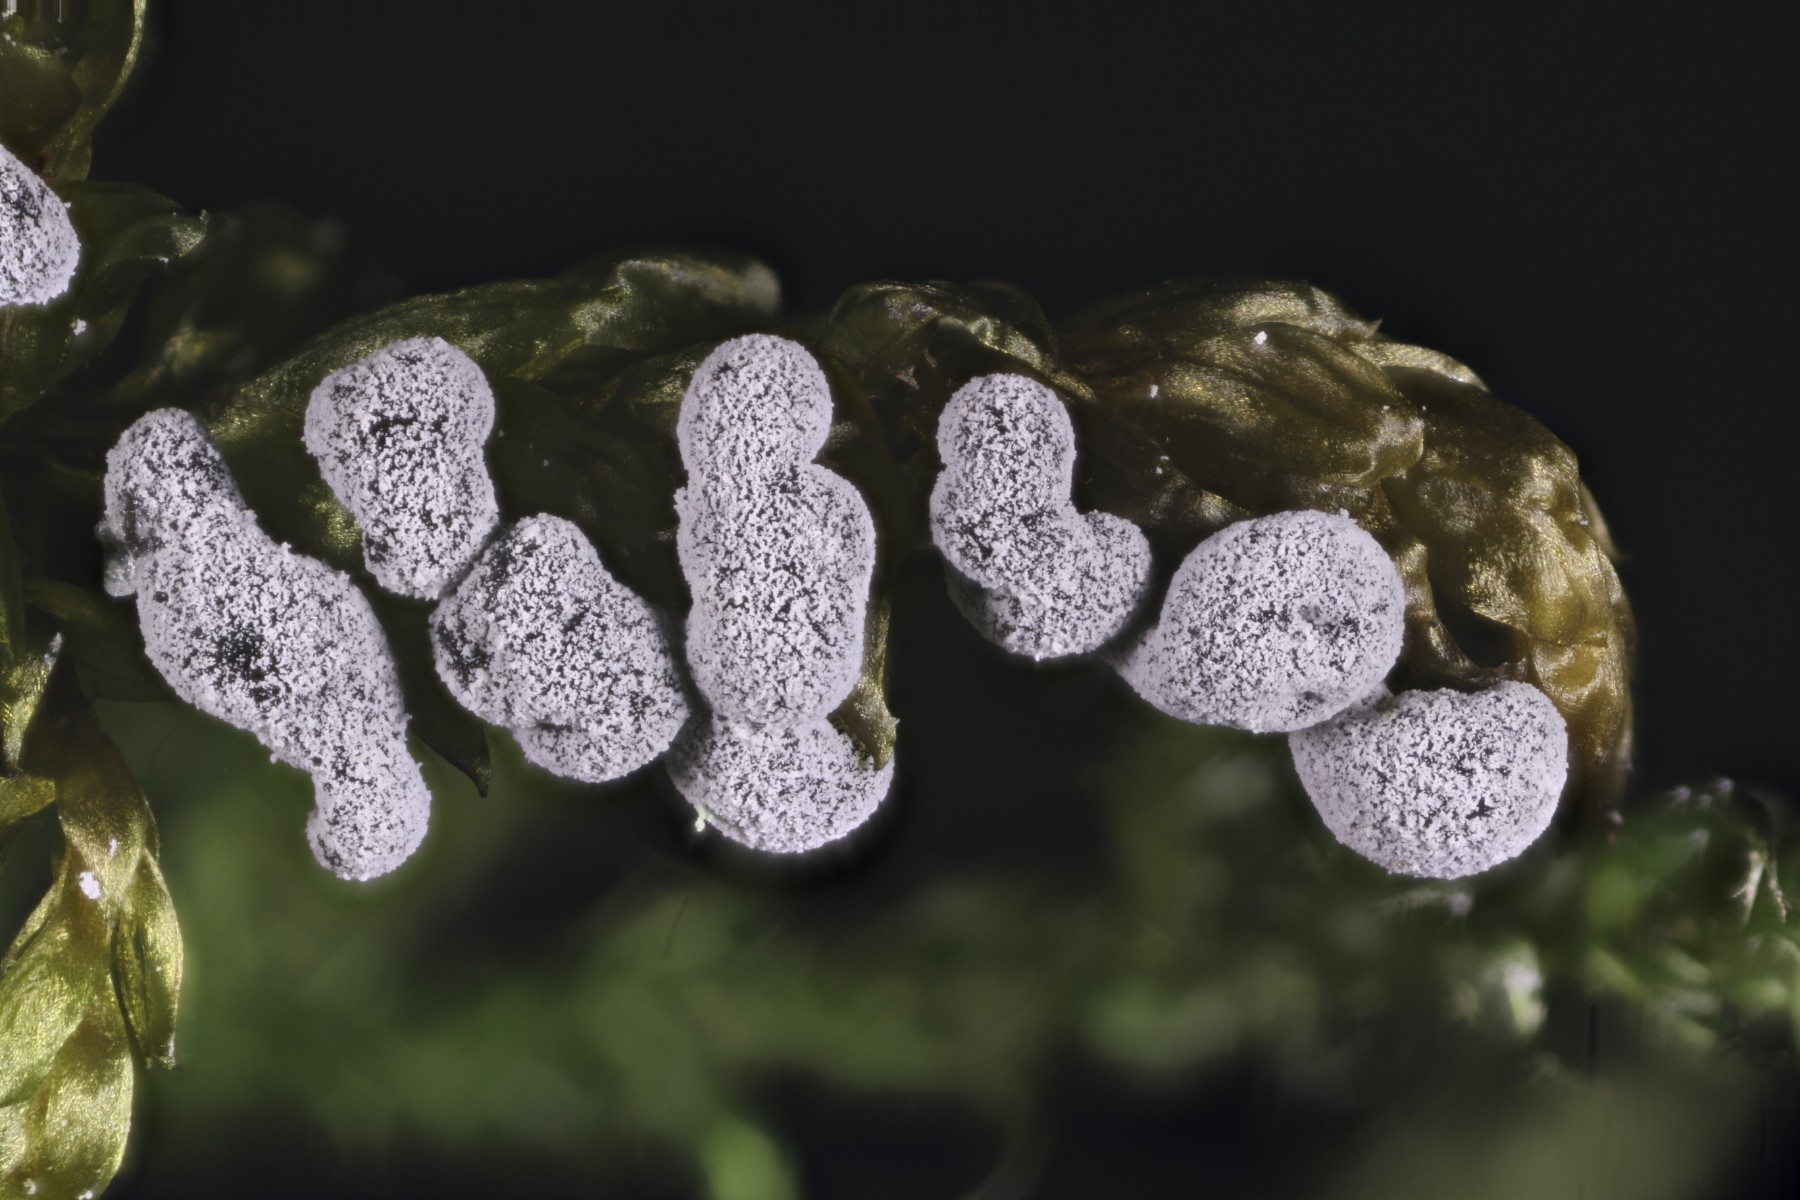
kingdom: Protozoa
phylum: Mycetozoa
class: Myxomycetes
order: Physarales
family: Didymiaceae
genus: Didymium
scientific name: Didymium melanospermum
